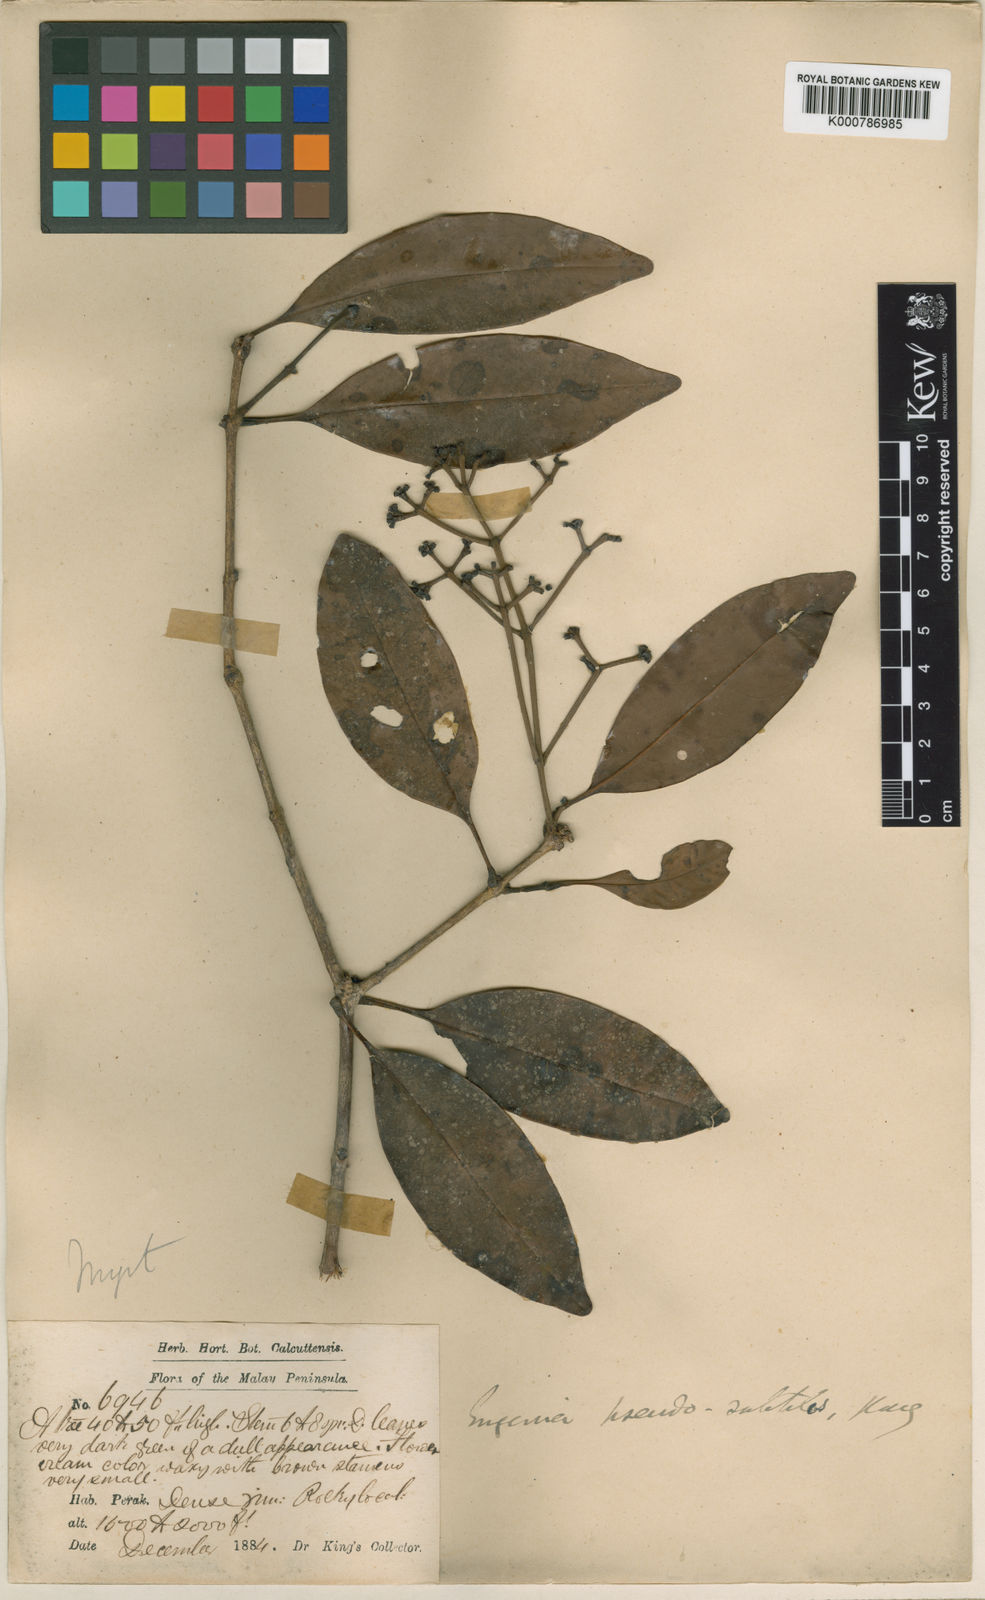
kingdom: Plantae
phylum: Tracheophyta
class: Magnoliopsida
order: Myrtales
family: Myrtaceae
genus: Syzygium
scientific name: Syzygium borneense
